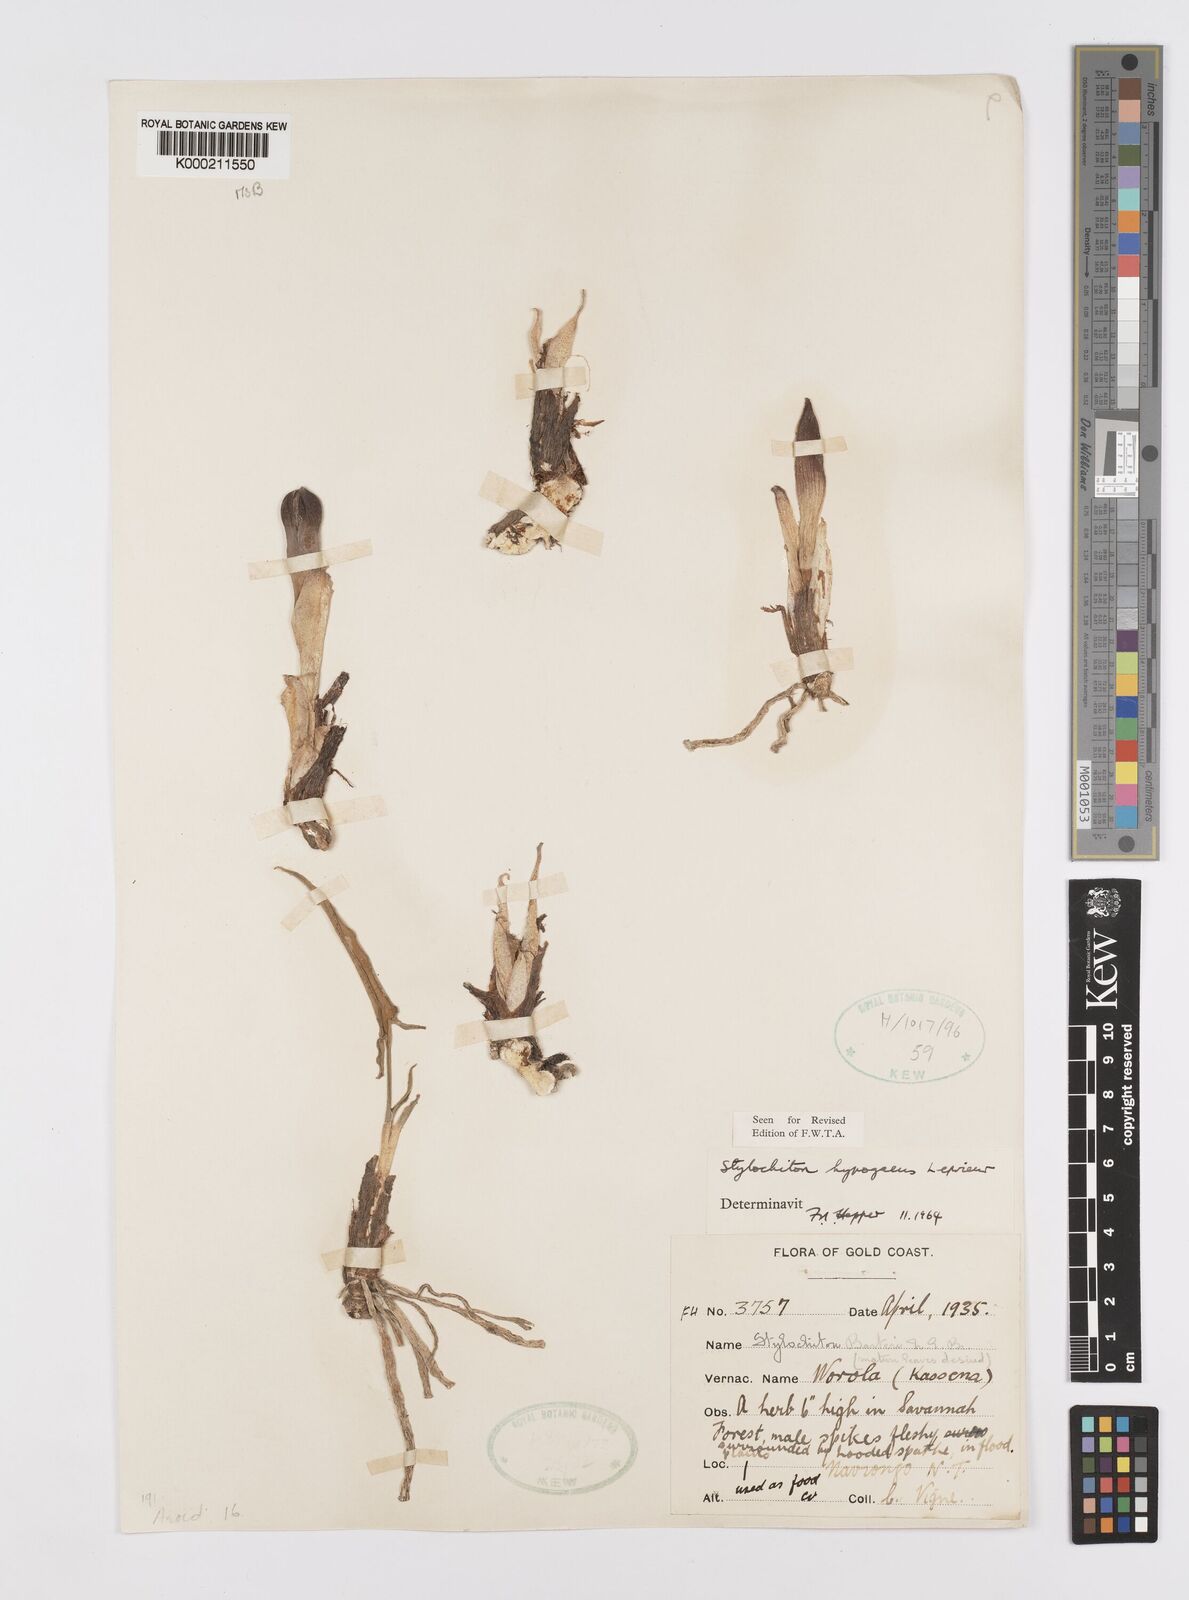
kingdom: Plantae
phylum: Tracheophyta
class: Liliopsida
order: Alismatales
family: Araceae
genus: Stylochaeton
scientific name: Stylochaeton
